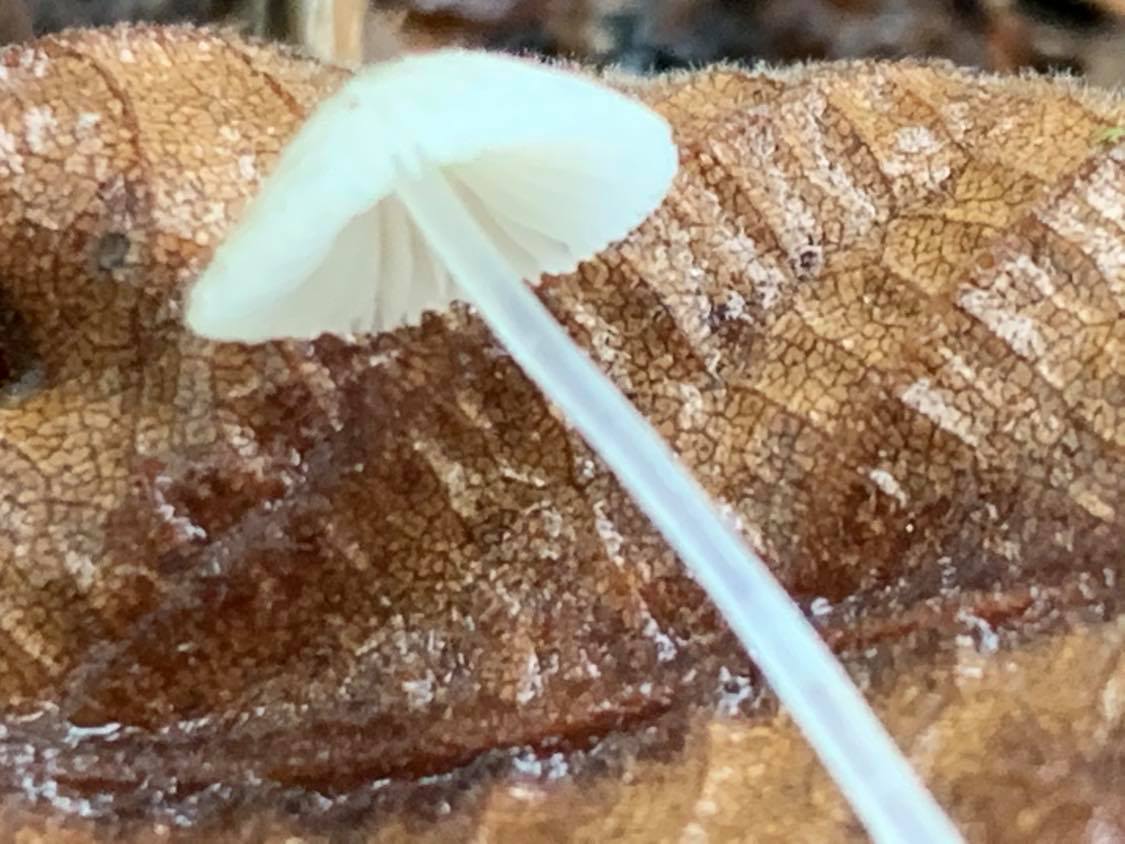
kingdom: Fungi
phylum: Basidiomycota
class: Agaricomycetes
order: Agaricales
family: Mycenaceae
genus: Mycena
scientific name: Mycena
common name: huesvamp
